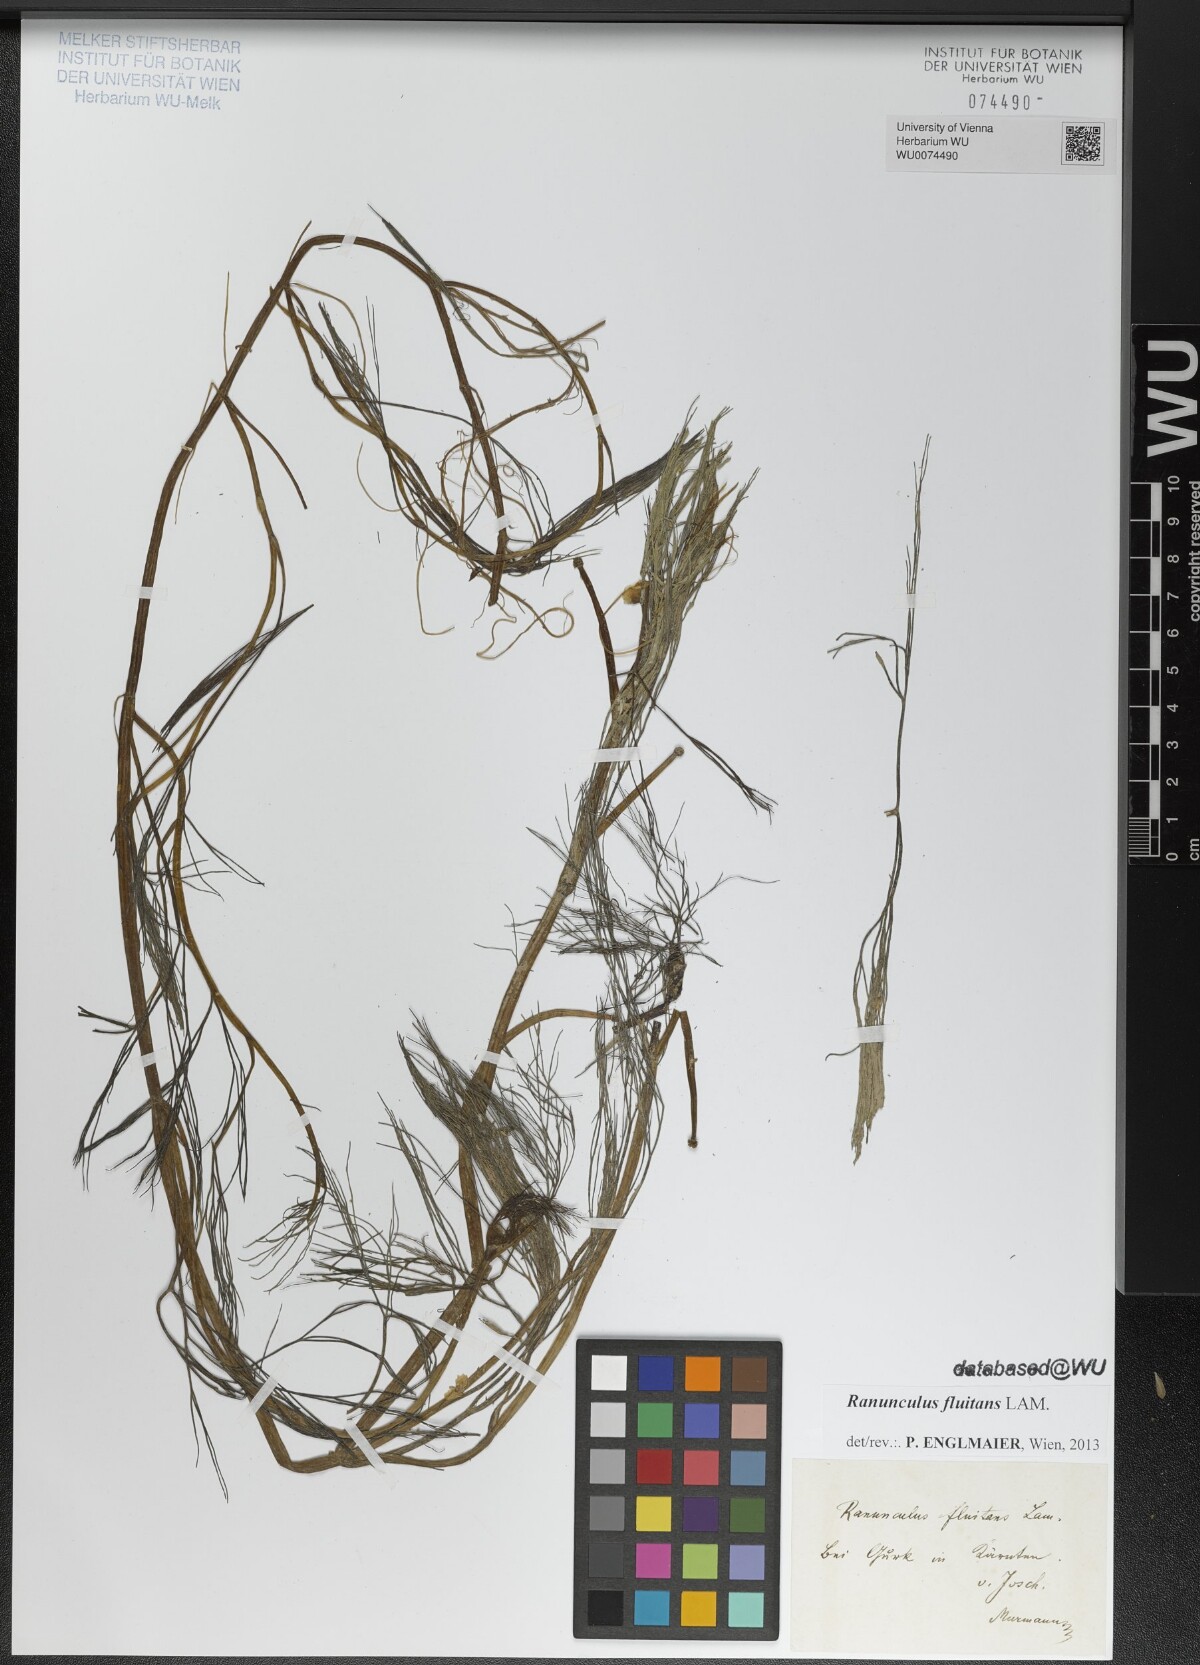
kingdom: Plantae
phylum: Tracheophyta
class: Magnoliopsida
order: Ranunculales
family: Ranunculaceae
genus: Ranunculus
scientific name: Ranunculus fluitans
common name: River water-crowfoot
